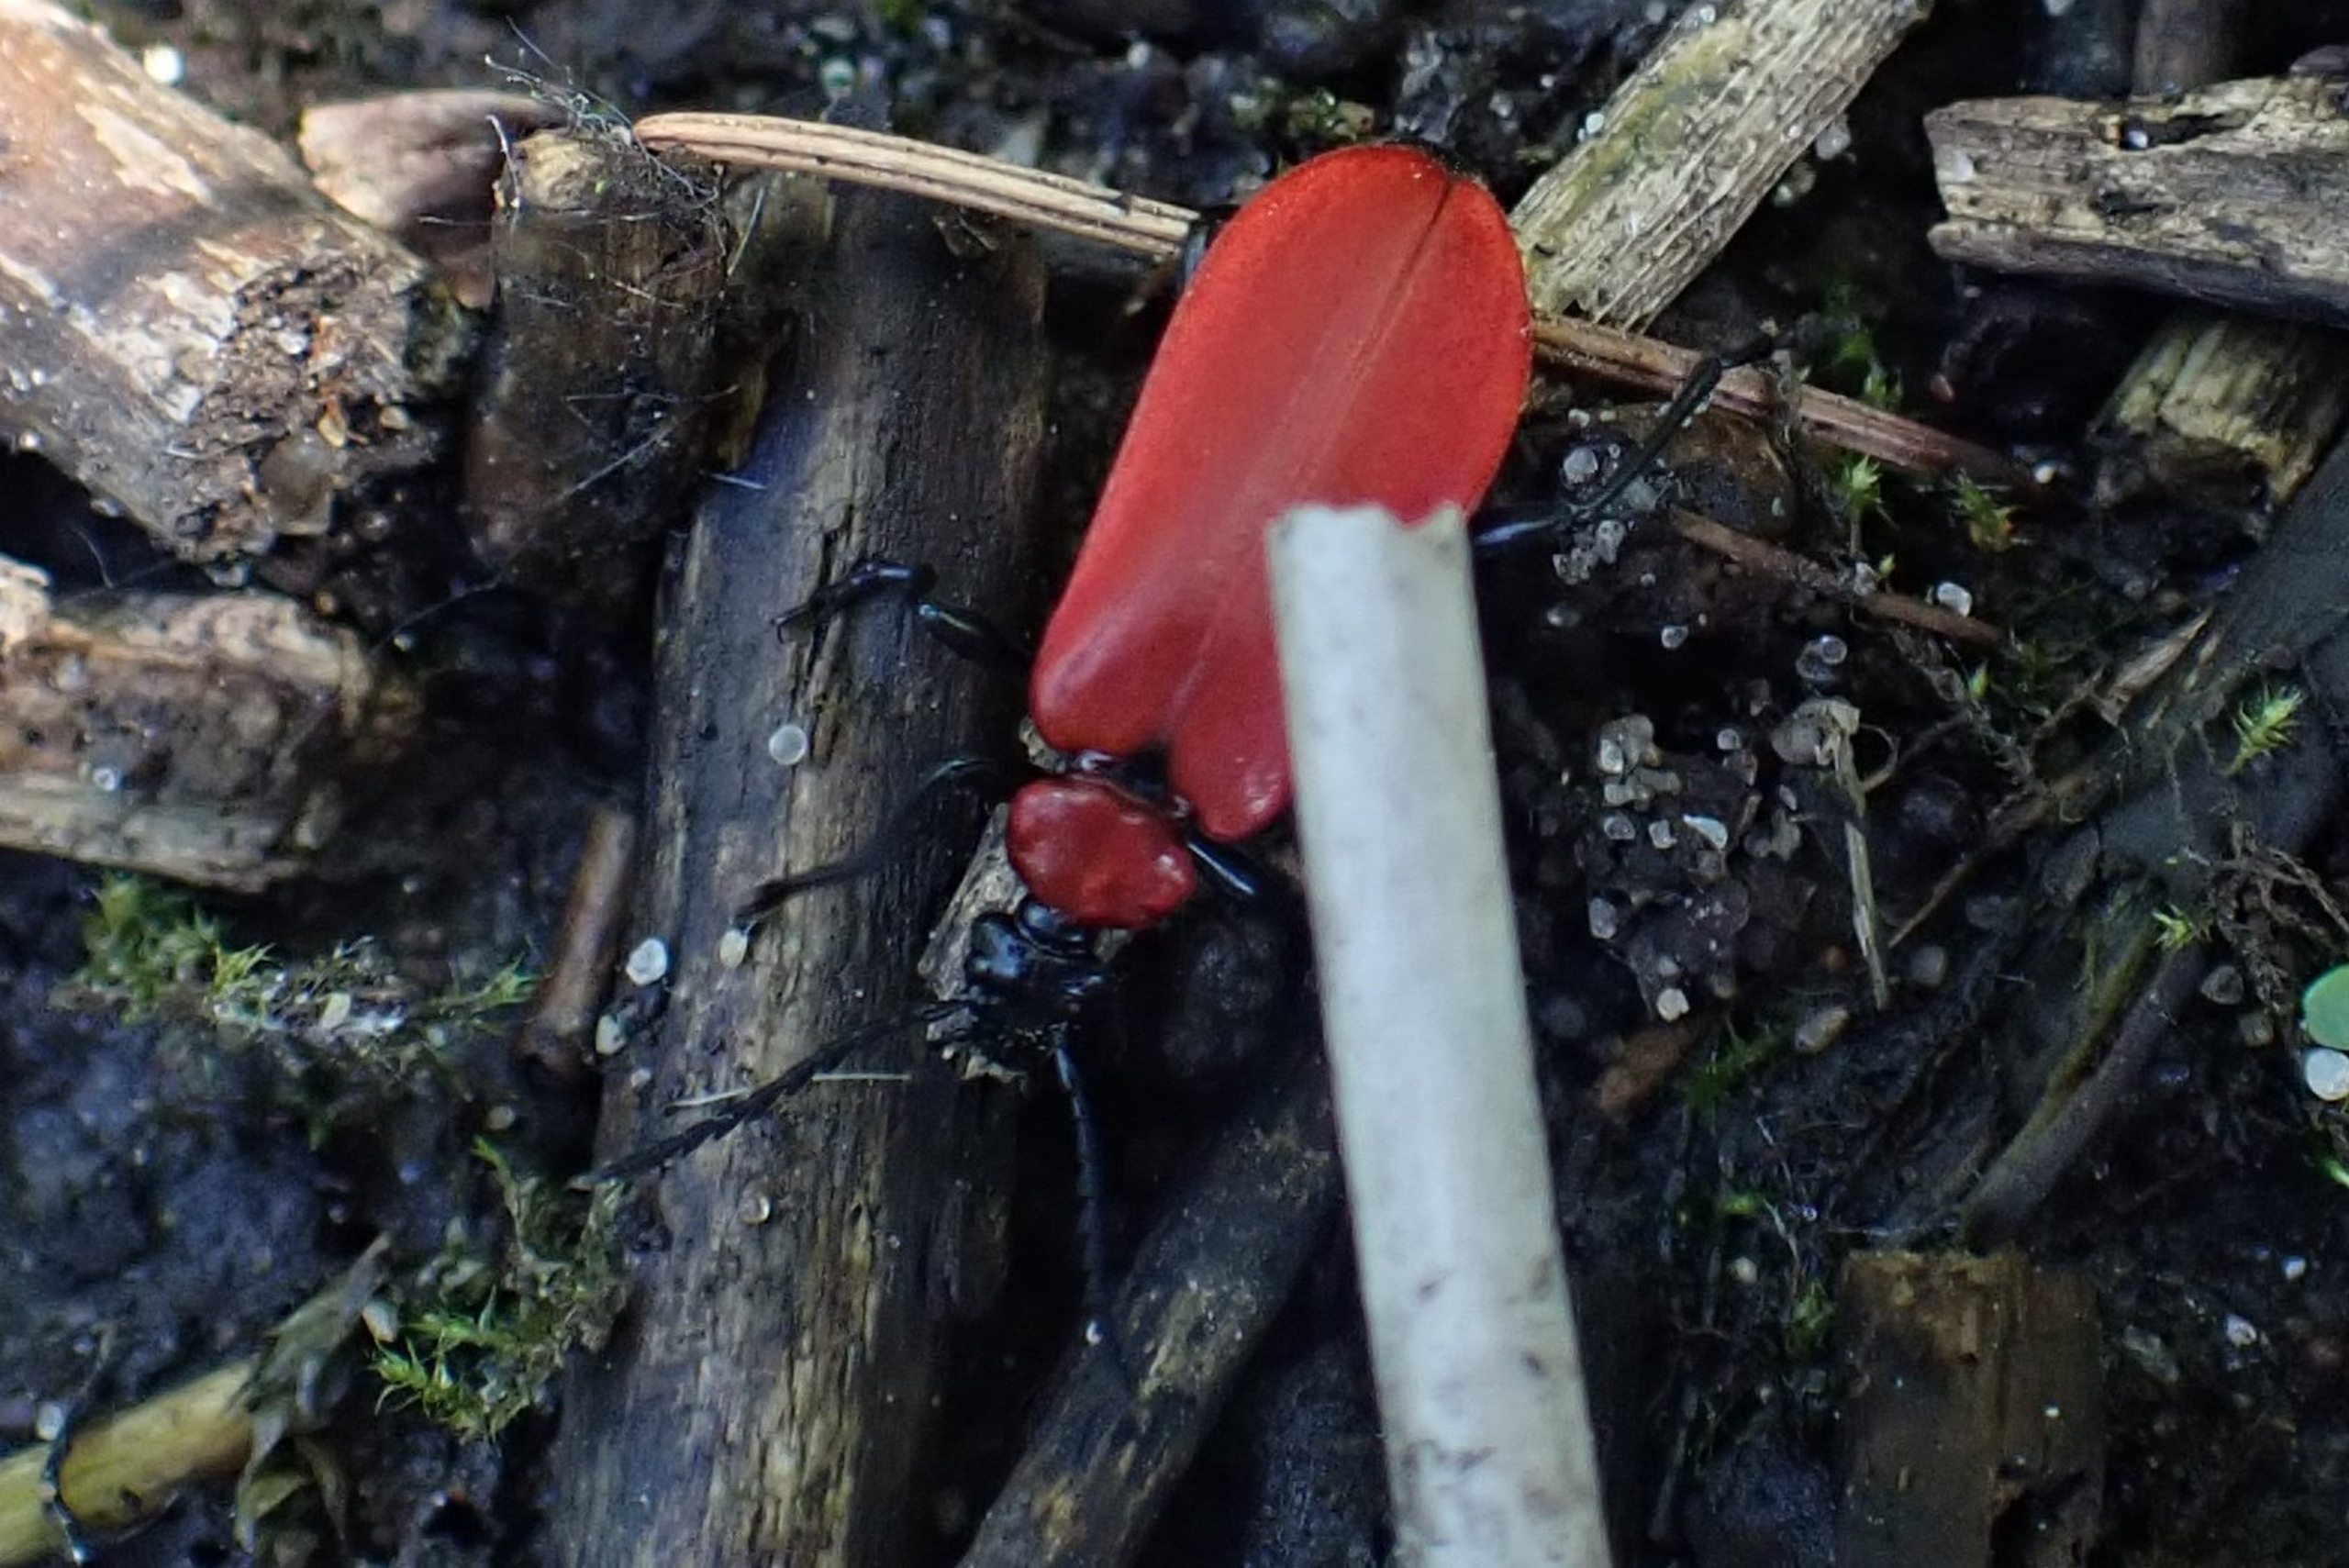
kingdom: Animalia
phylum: Arthropoda
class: Insecta
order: Coleoptera
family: Pyrochroidae
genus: Pyrochroa
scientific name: Pyrochroa coccinea
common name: Sorthovedet kardinalbille
